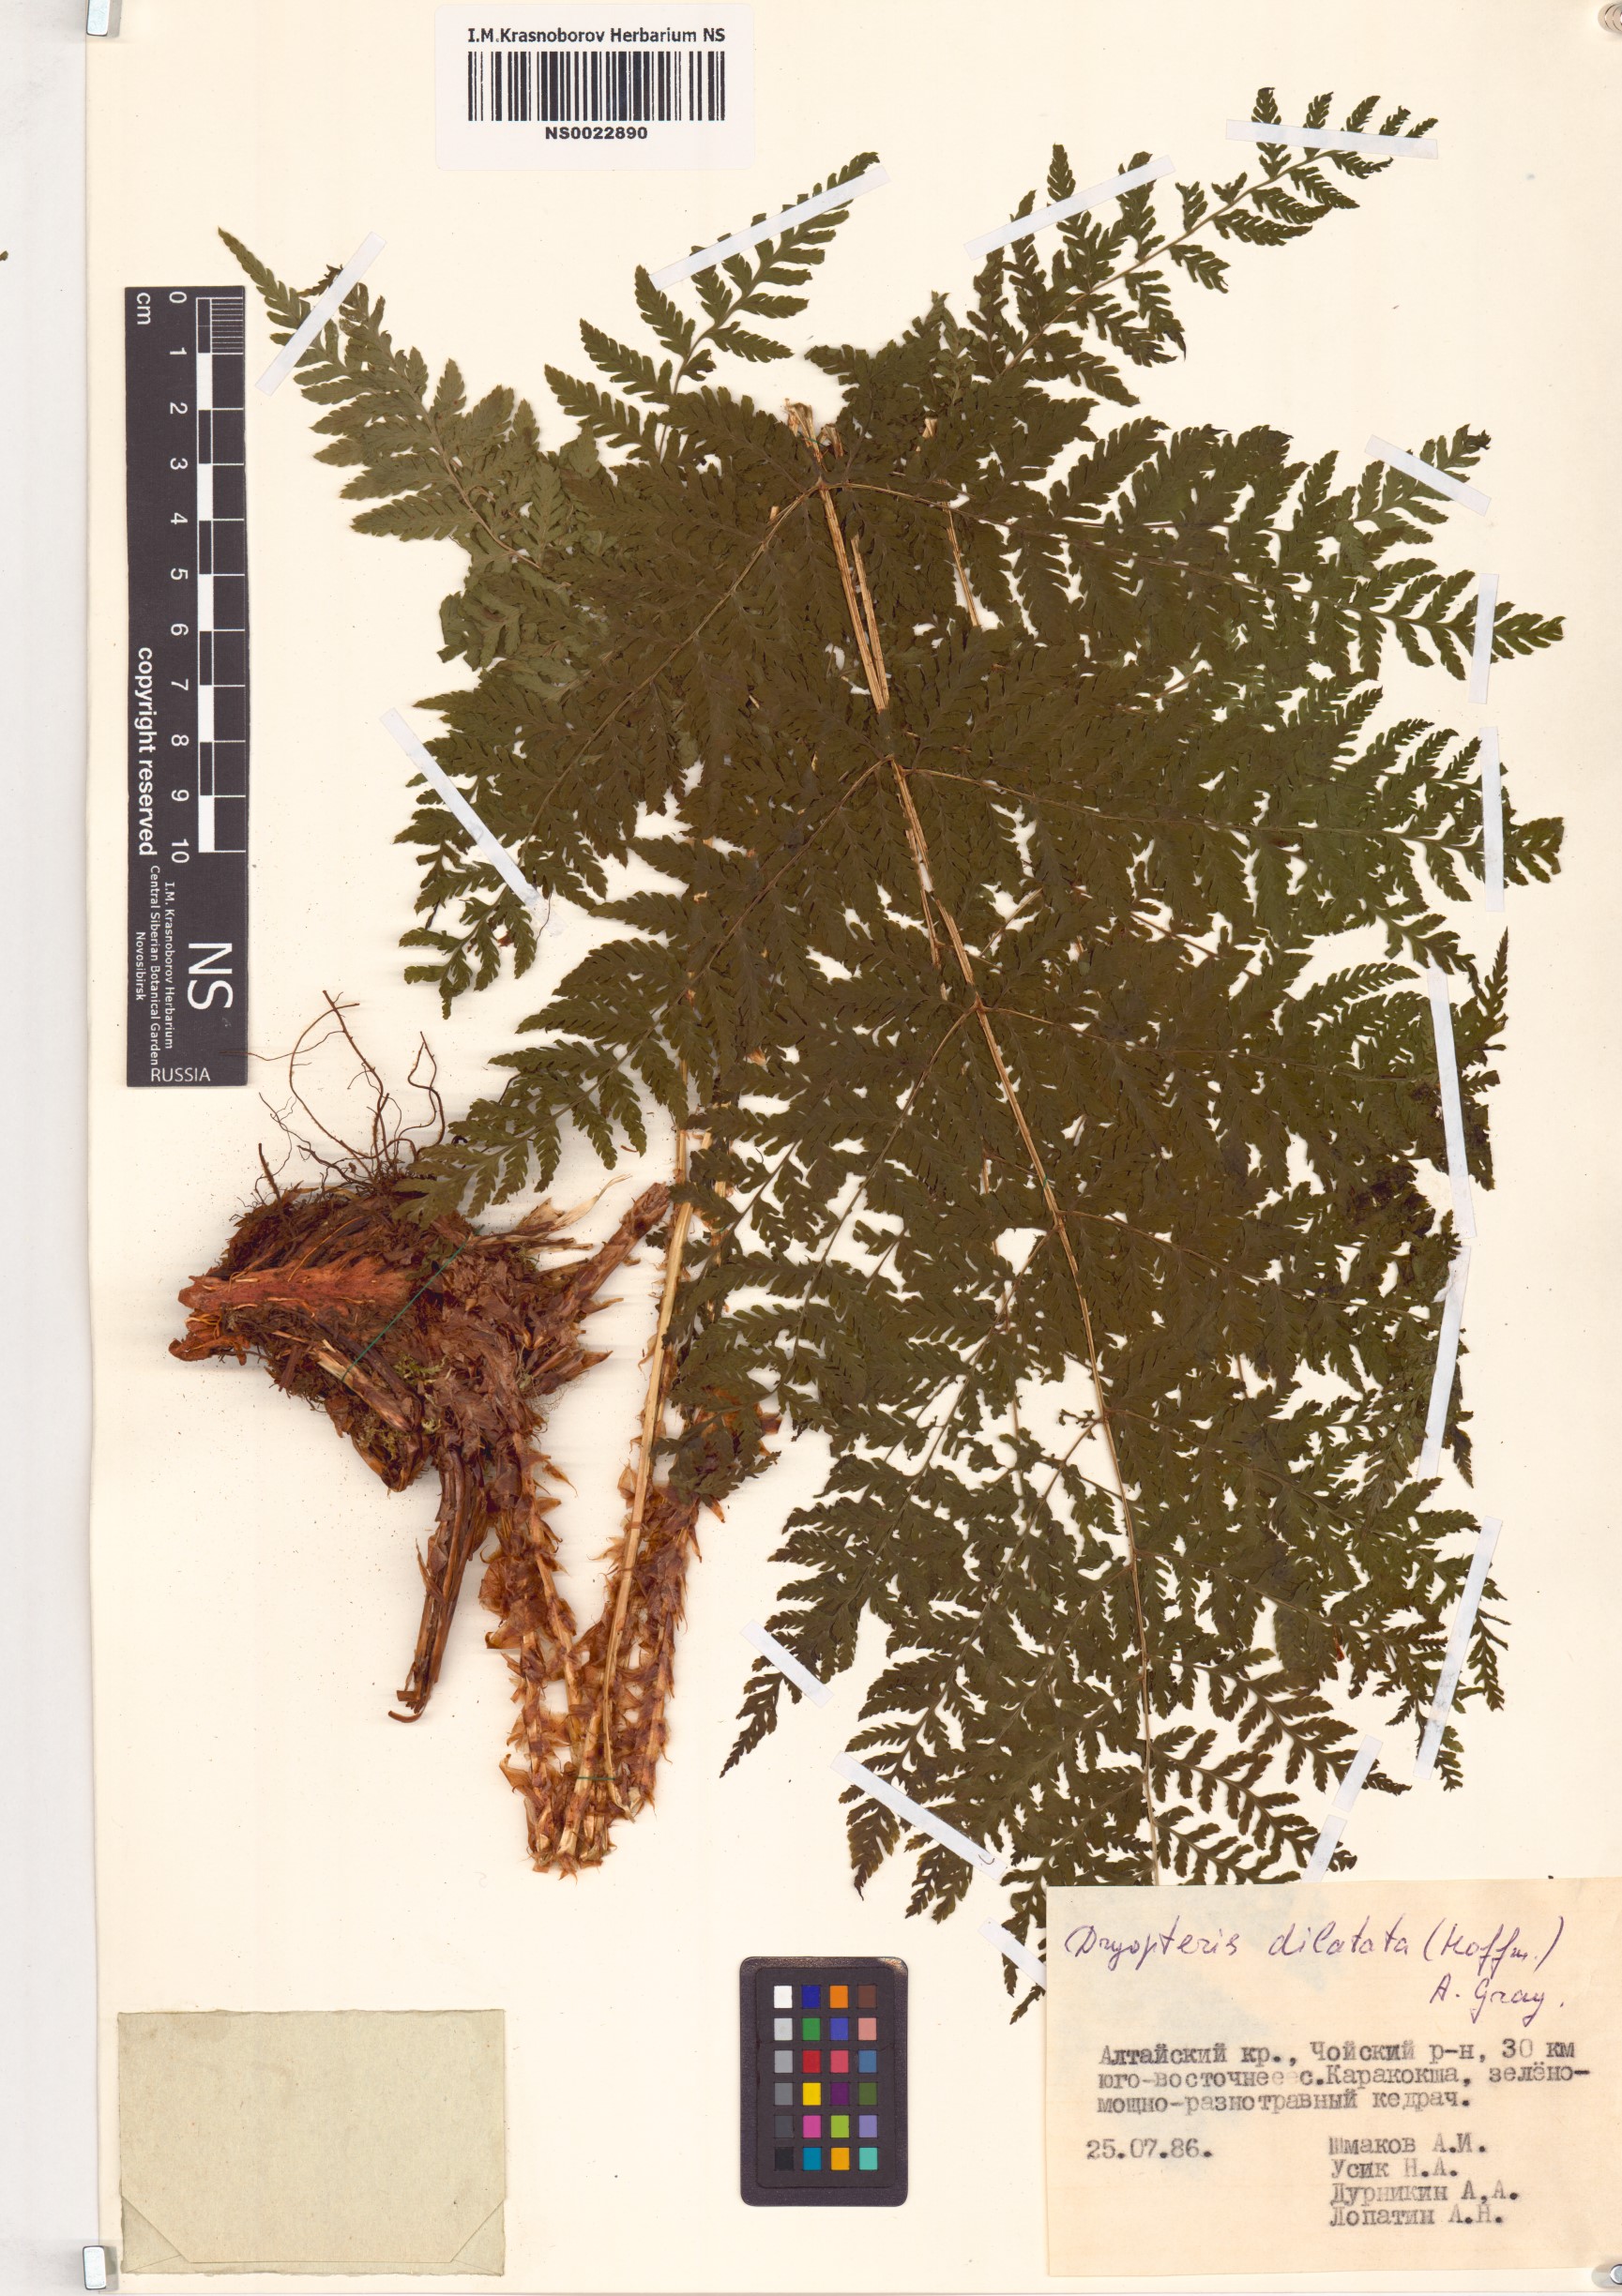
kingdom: Plantae
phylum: Tracheophyta
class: Polypodiopsida
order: Polypodiales
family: Dryopteridaceae
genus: Dryopteris
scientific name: Dryopteris dilatata
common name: Broad buckler-fern
